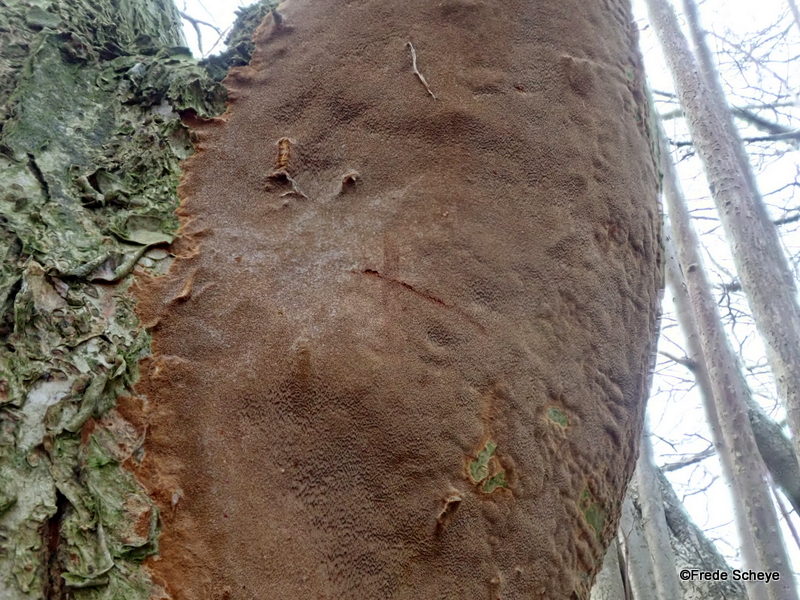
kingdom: Fungi
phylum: Basidiomycota
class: Agaricomycetes
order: Hymenochaetales
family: Hymenochaetaceae
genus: Fomitiporia
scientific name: Fomitiporia punctata
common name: pude-ildporesvamp
